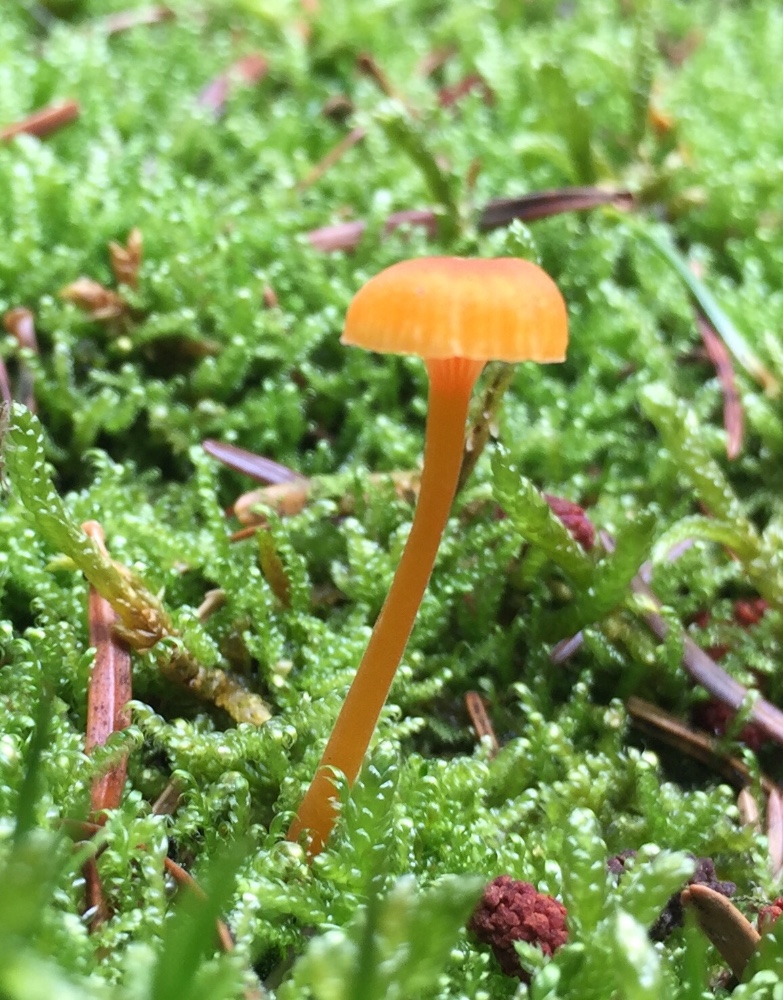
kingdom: Fungi
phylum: Basidiomycota
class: Agaricomycetes
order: Hymenochaetales
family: Rickenellaceae
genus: Rickenella
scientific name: Rickenella fibula
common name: orange mosnavlehat
